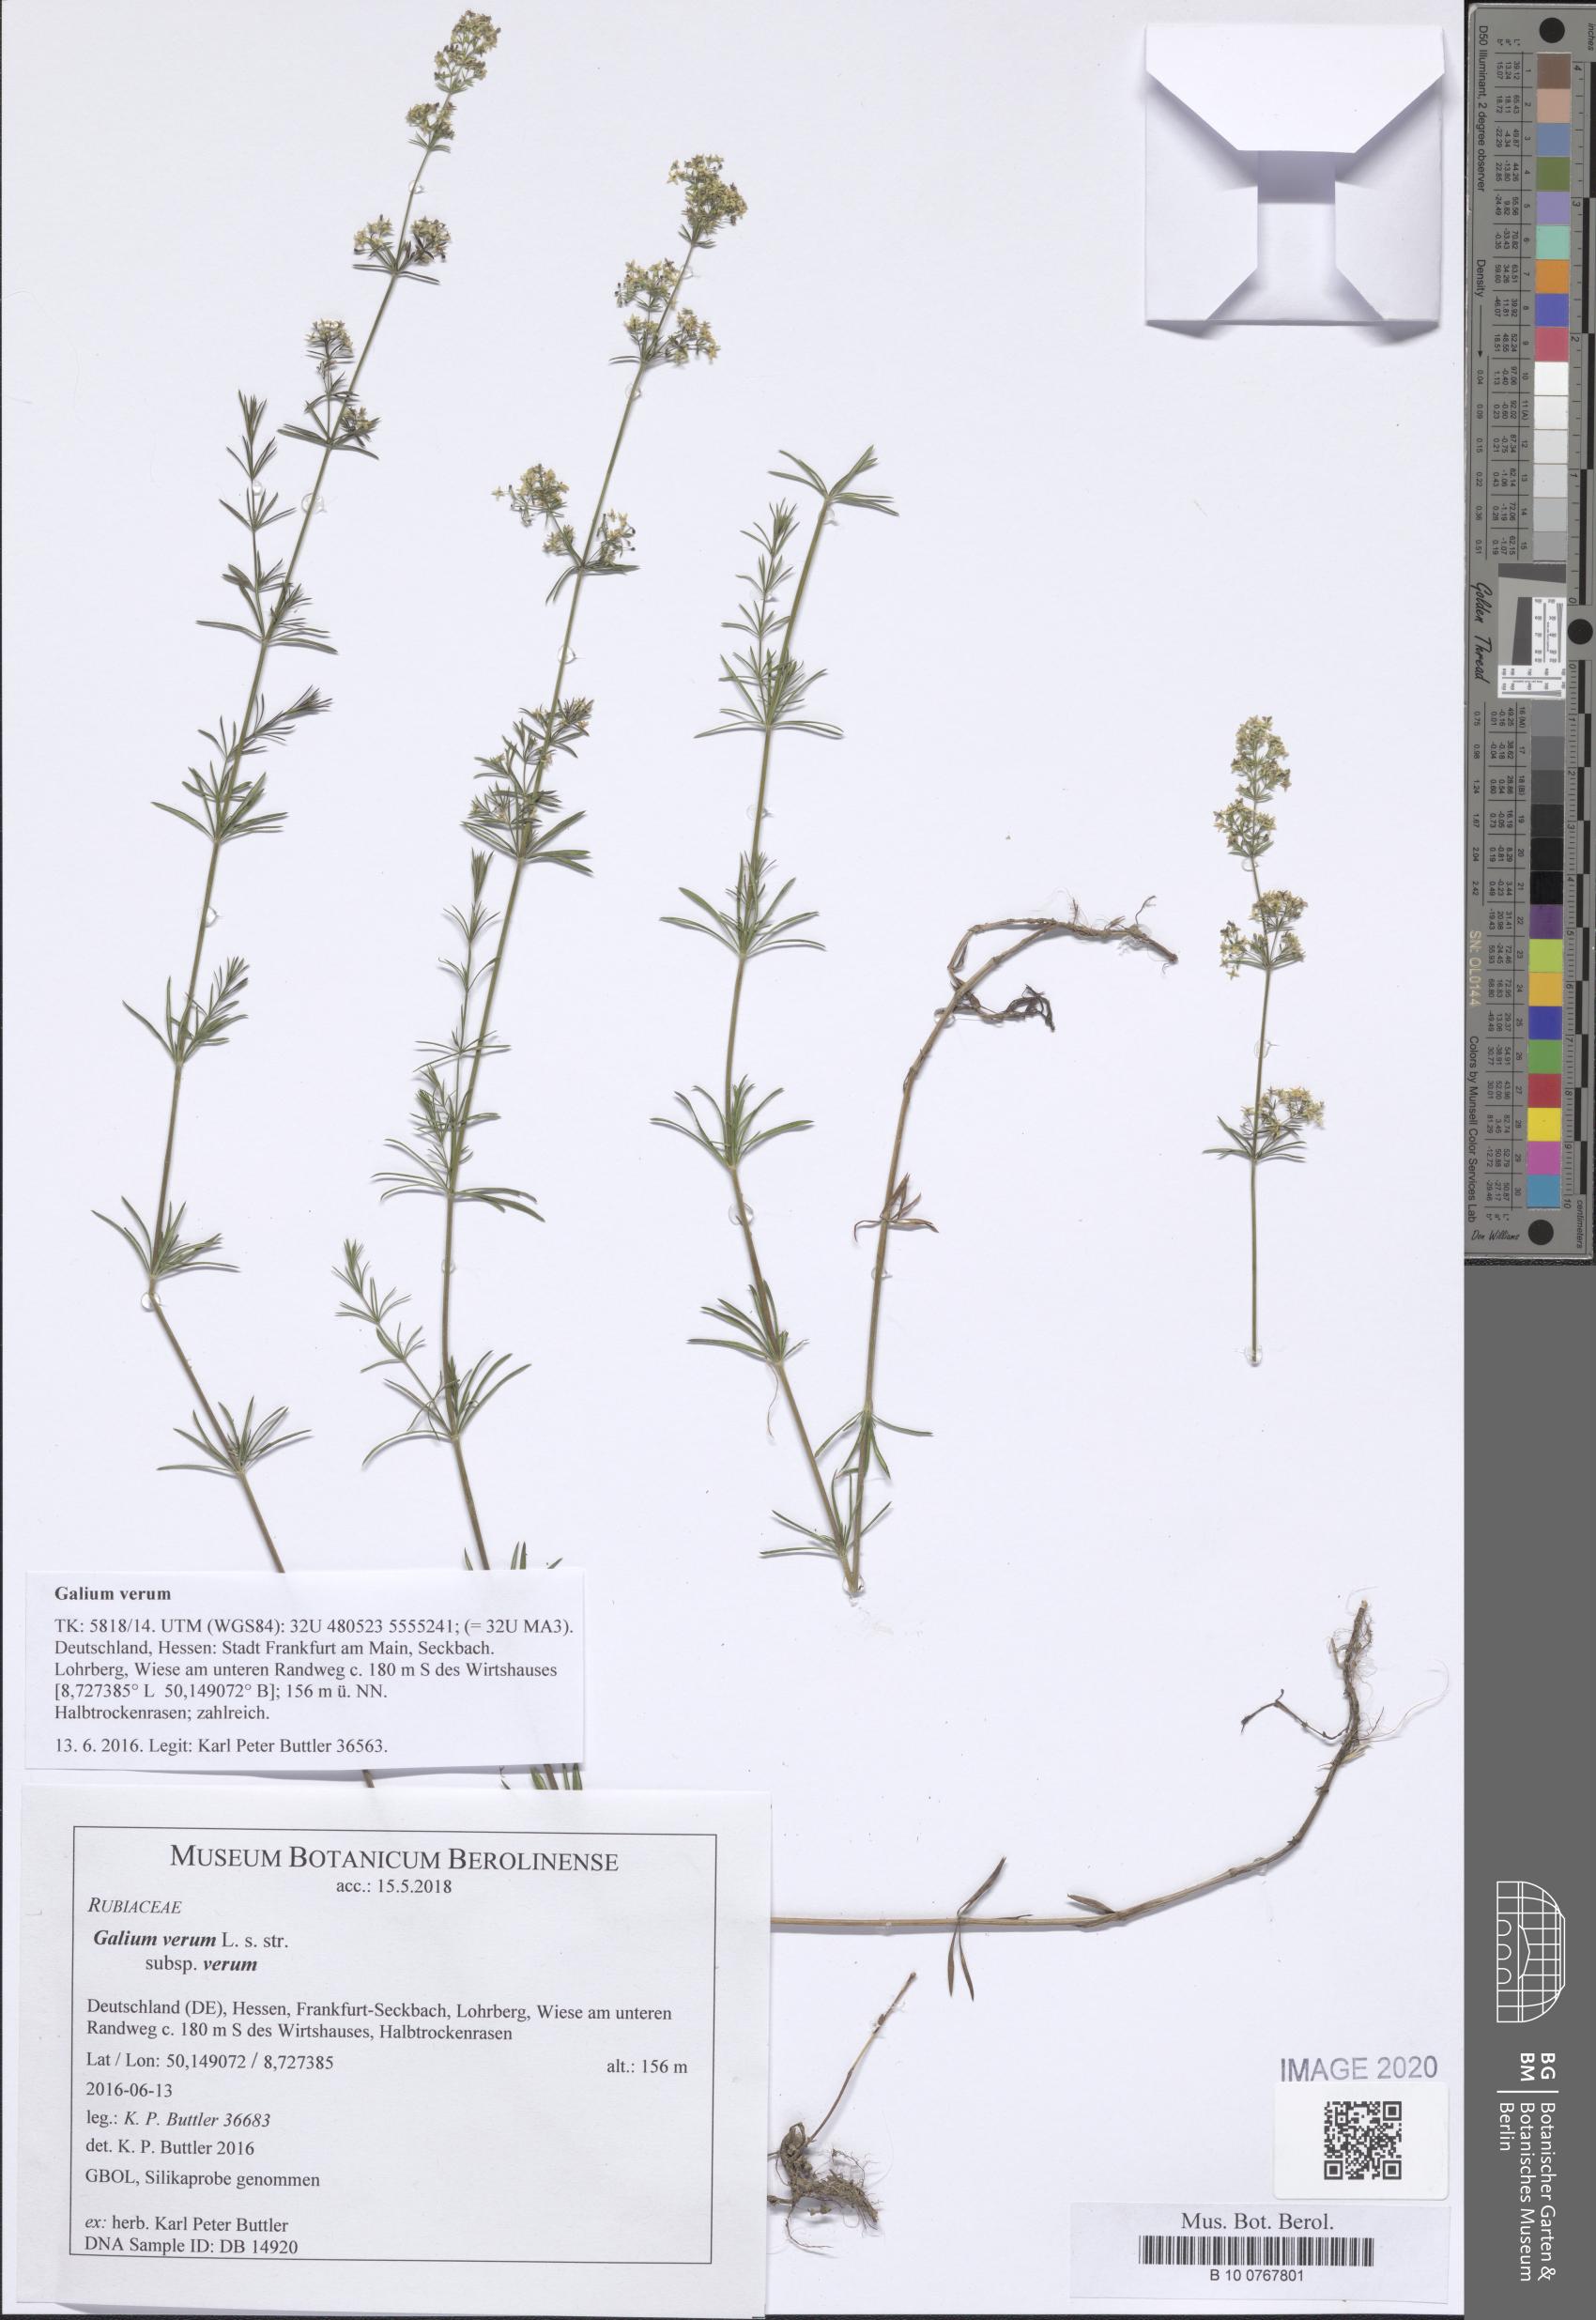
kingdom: Plantae
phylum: Tracheophyta
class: Magnoliopsida
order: Gentianales
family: Rubiaceae
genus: Galium
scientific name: Galium verum
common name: Lady's bedstraw
